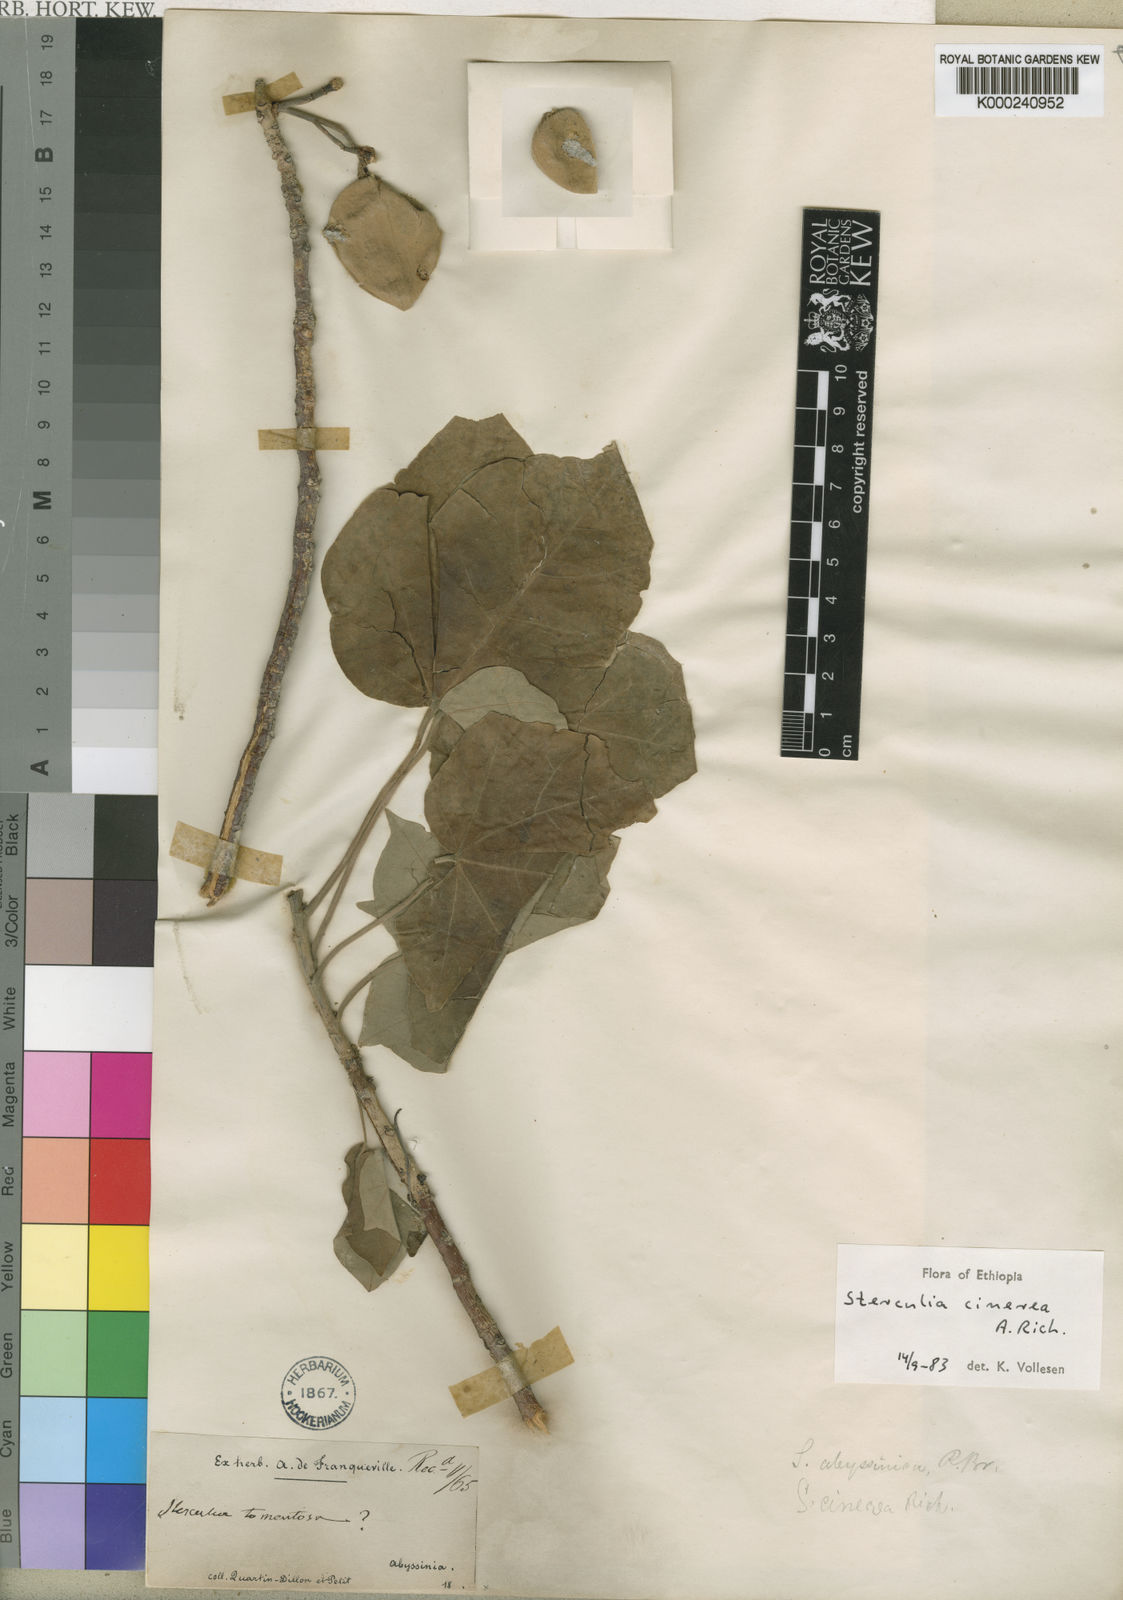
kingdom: Plantae
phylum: Tracheophyta
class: Magnoliopsida
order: Malvales
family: Malvaceae
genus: Sterculia
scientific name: Sterculia cinerea
